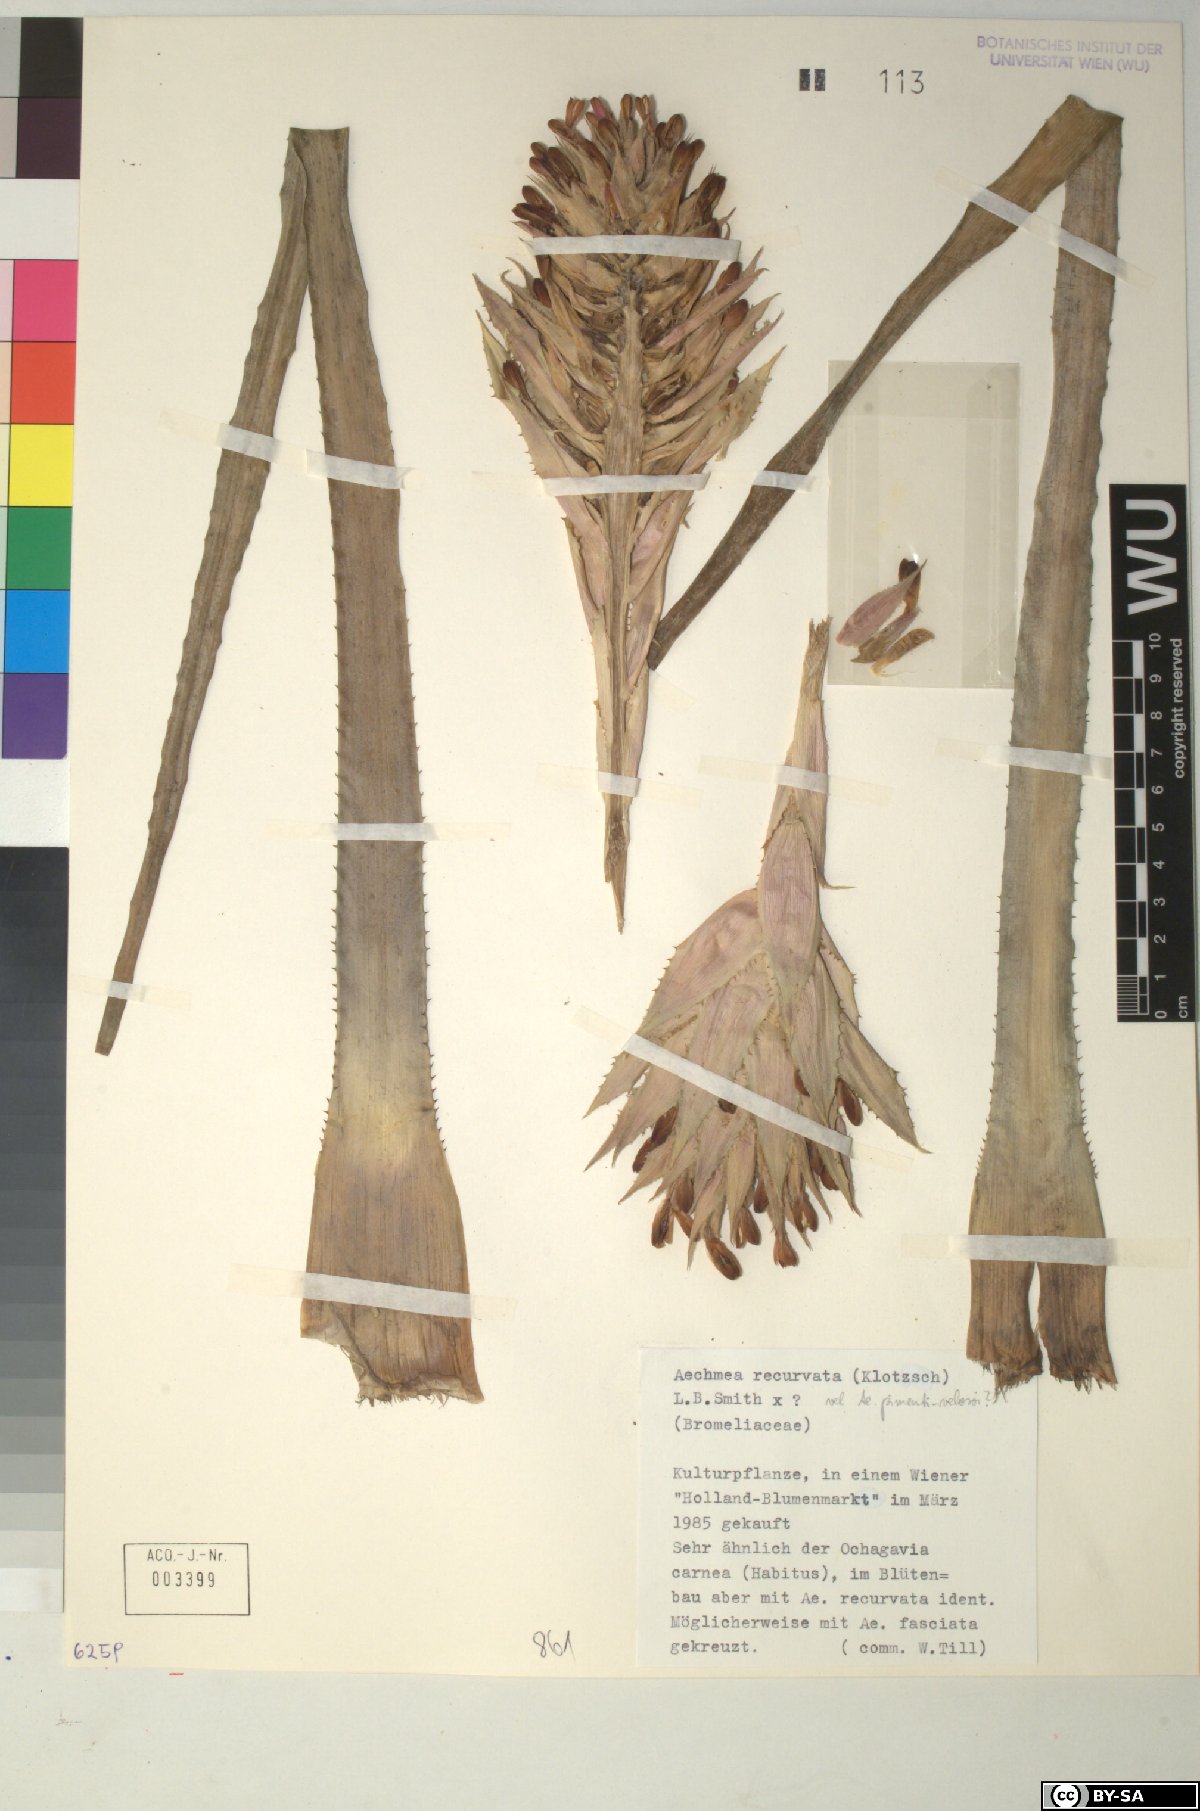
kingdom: Plantae
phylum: Tracheophyta
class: Liliopsida
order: Poales
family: Bromeliaceae
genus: Aechmea
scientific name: Aechmea
